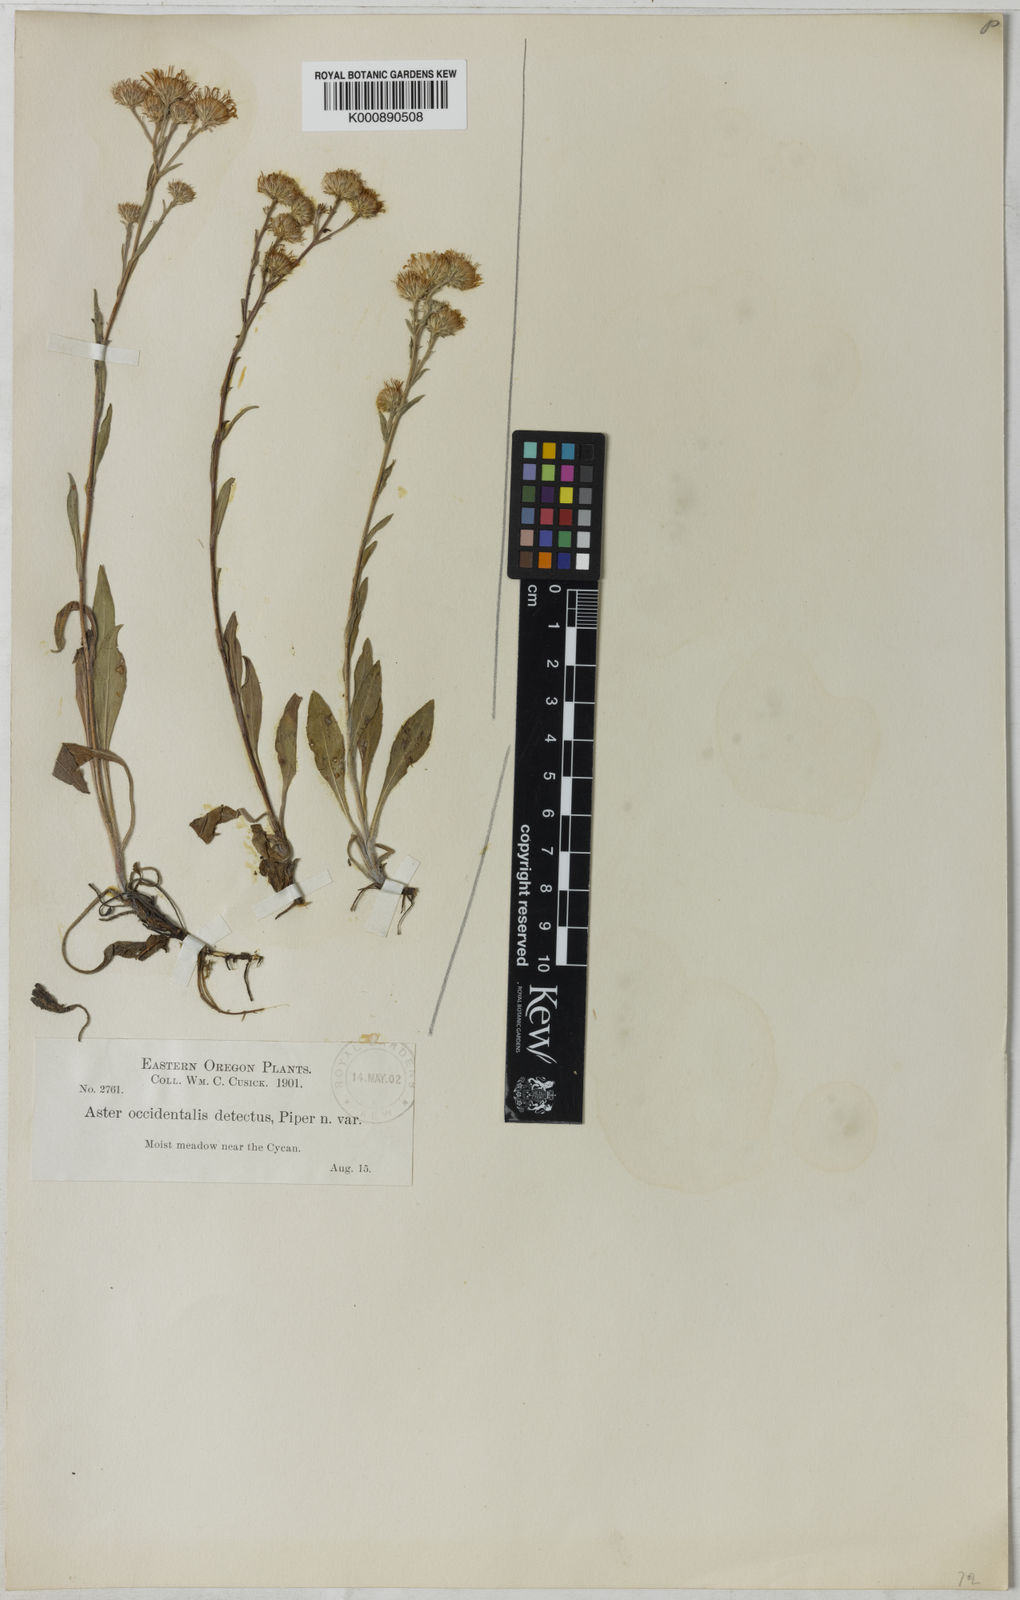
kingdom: Plantae
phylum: Tracheophyta
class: Magnoliopsida
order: Asterales
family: Asteraceae
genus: Aster
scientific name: Aster
